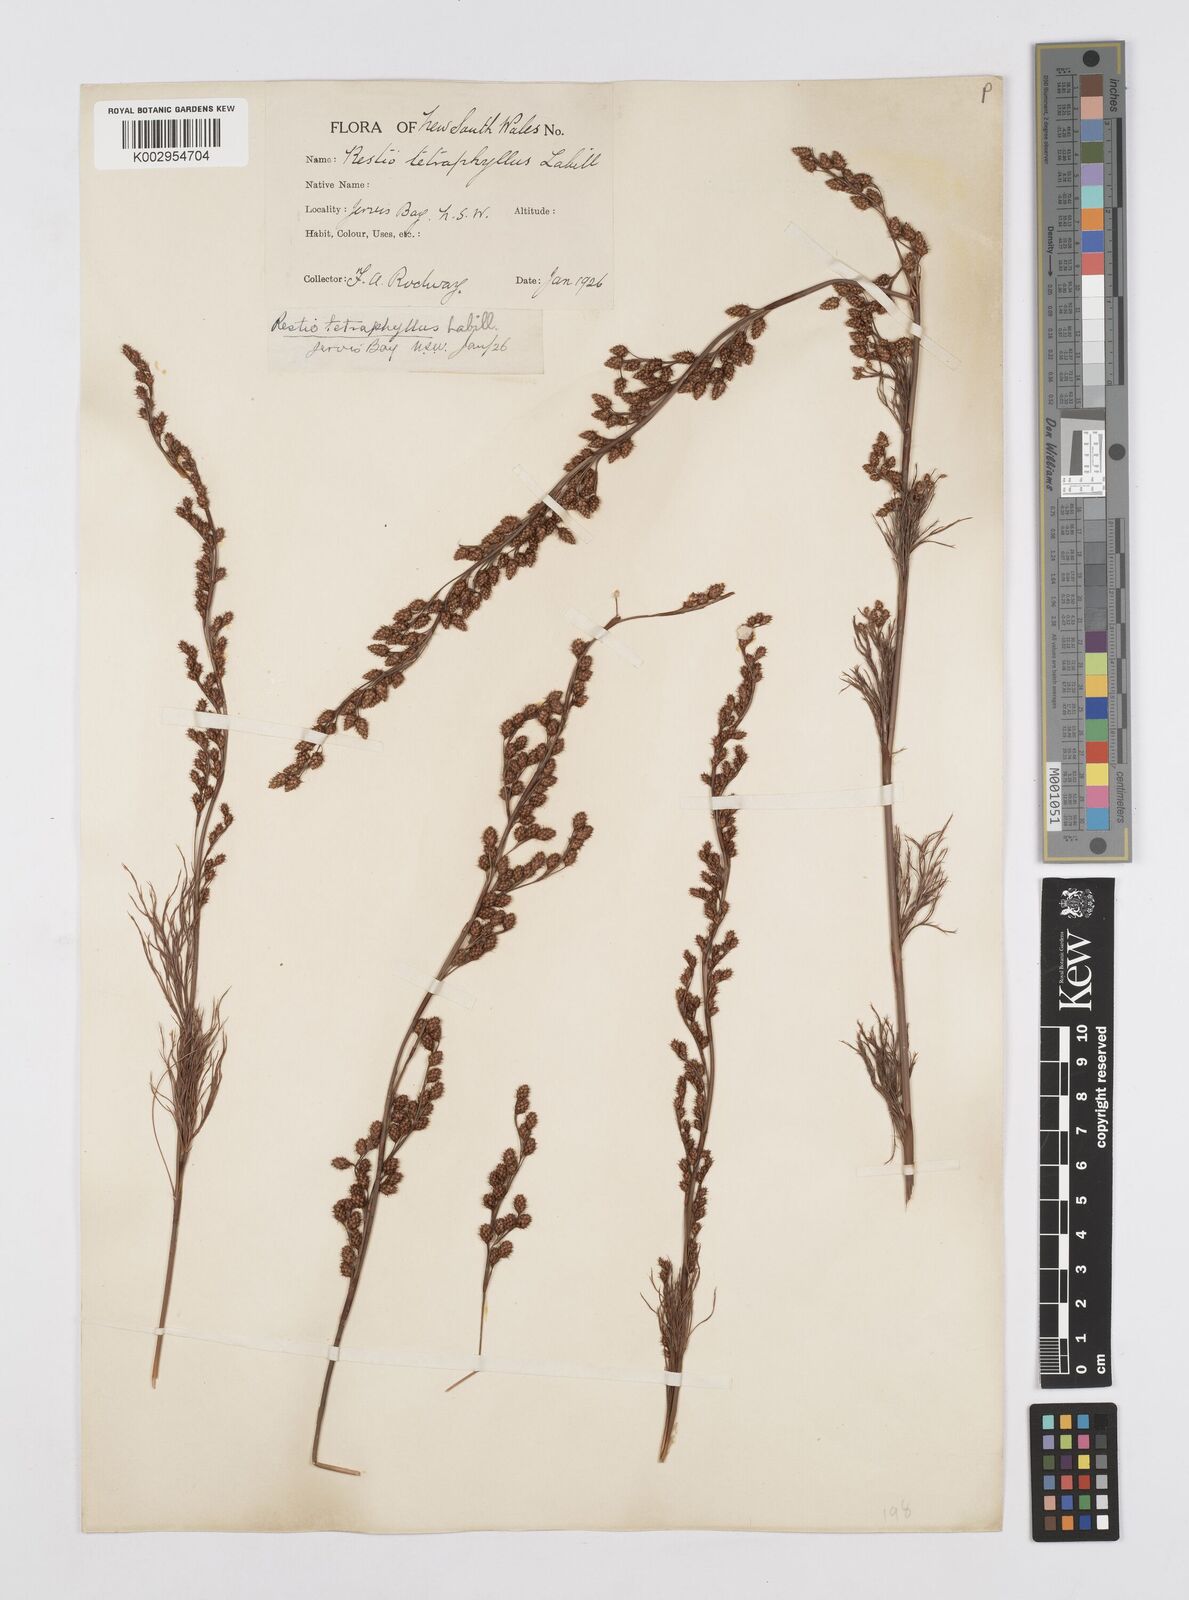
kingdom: Plantae
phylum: Tracheophyta
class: Liliopsida
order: Poales
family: Restionaceae
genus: Baloskion
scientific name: Baloskion tetraphyllum
